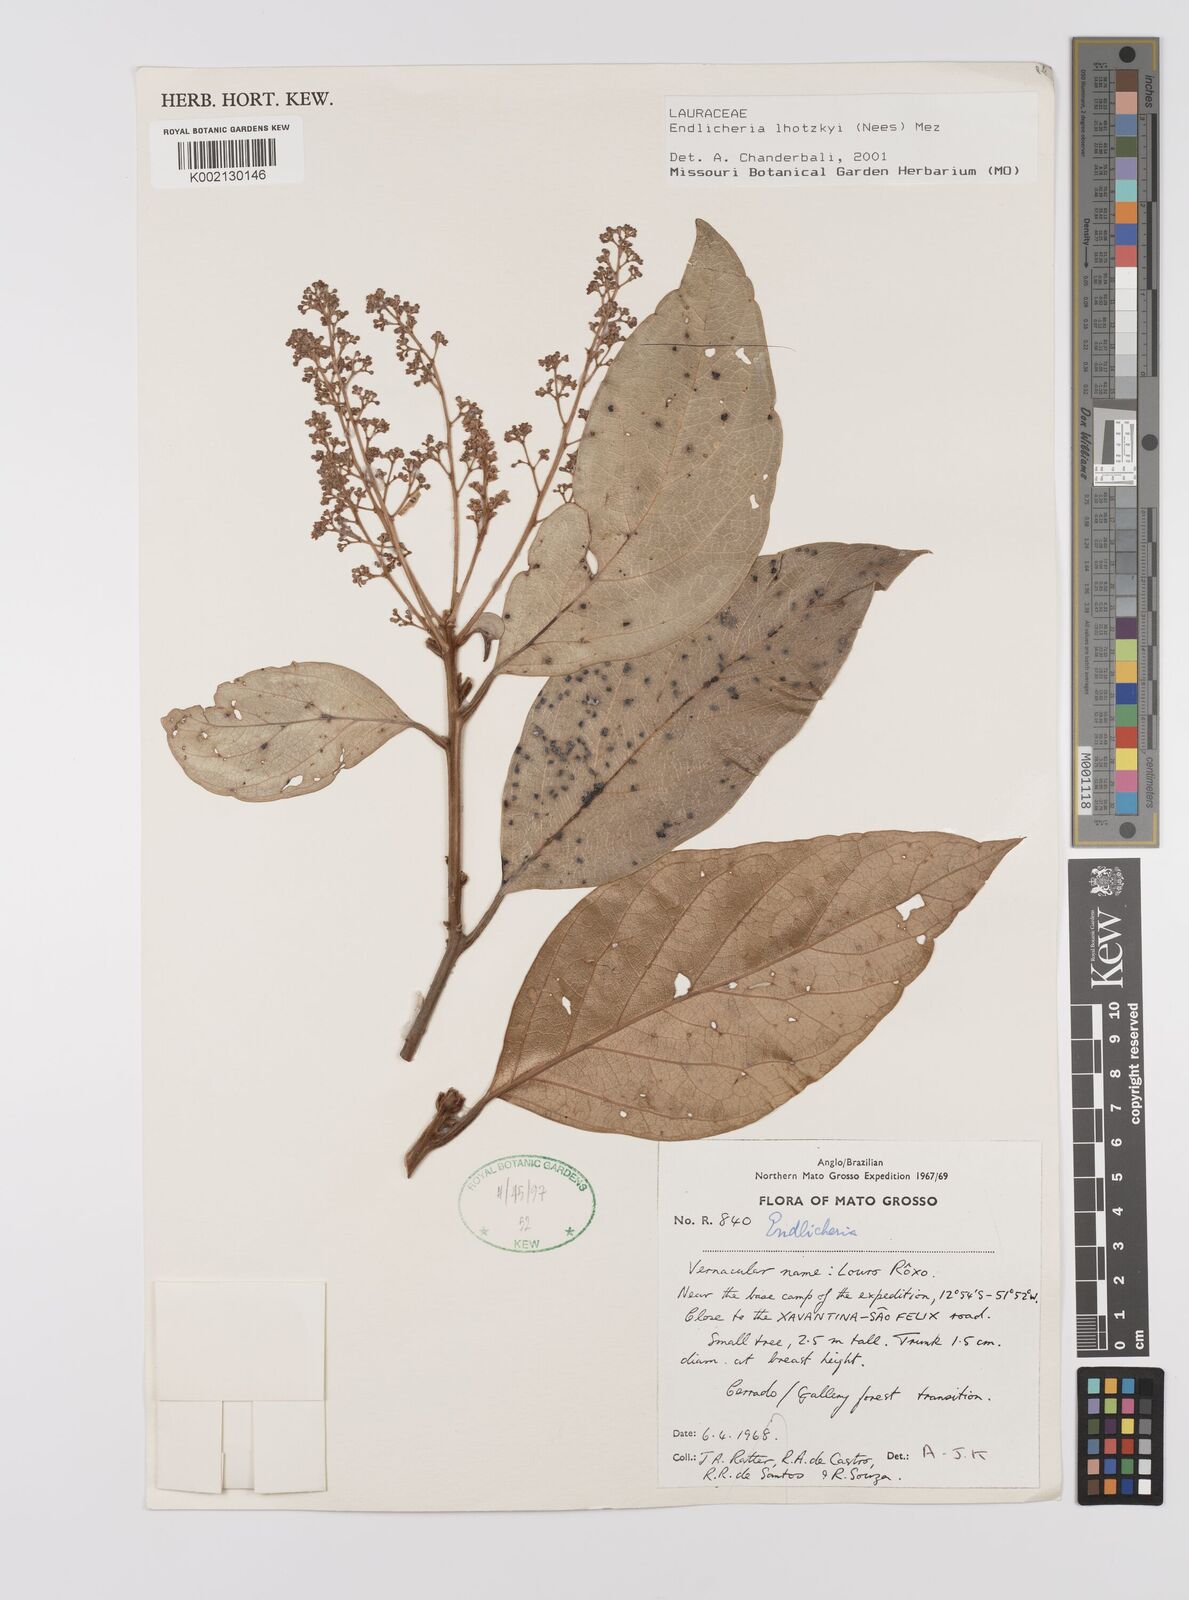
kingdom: Plantae
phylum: Tracheophyta
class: Magnoliopsida
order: Laurales
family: Lauraceae
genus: Endlicheria
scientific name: Endlicheria lhotzkyi
